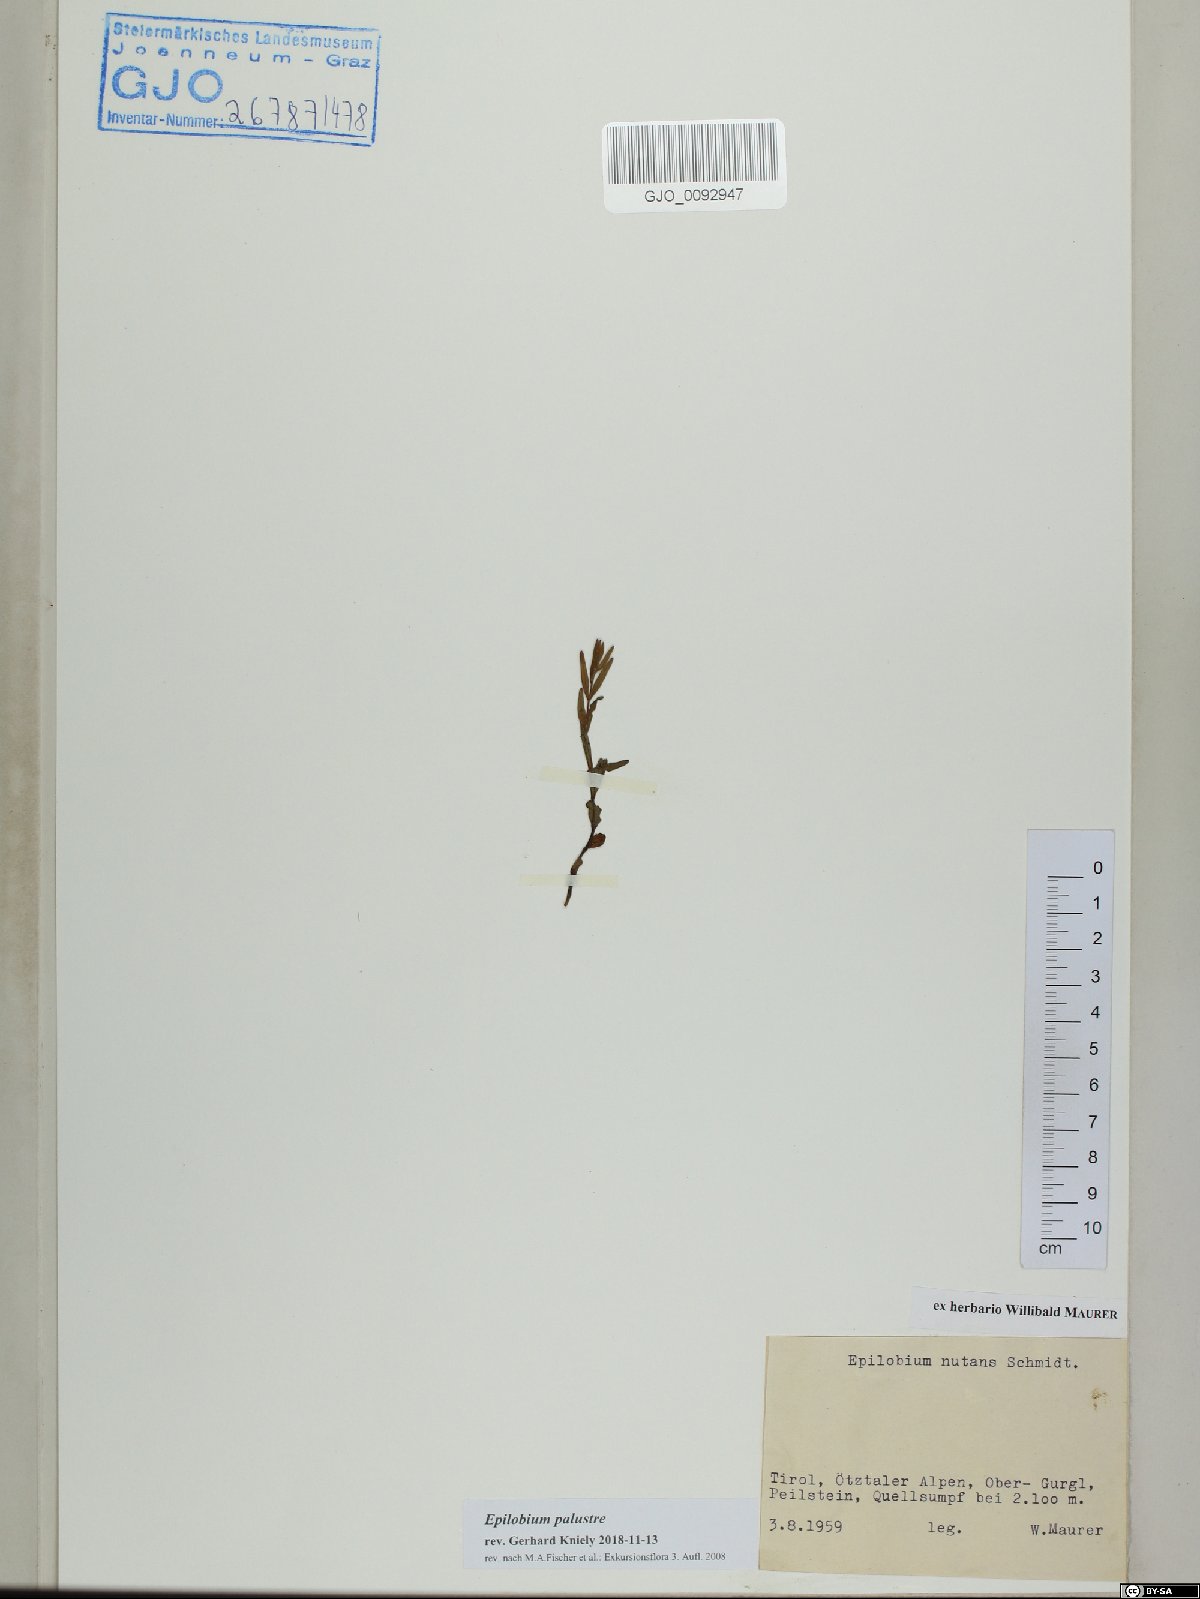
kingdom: Plantae
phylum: Tracheophyta
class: Magnoliopsida
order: Myrtales
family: Onagraceae
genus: Epilobium
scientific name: Epilobium palustre
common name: Marsh willowherb
